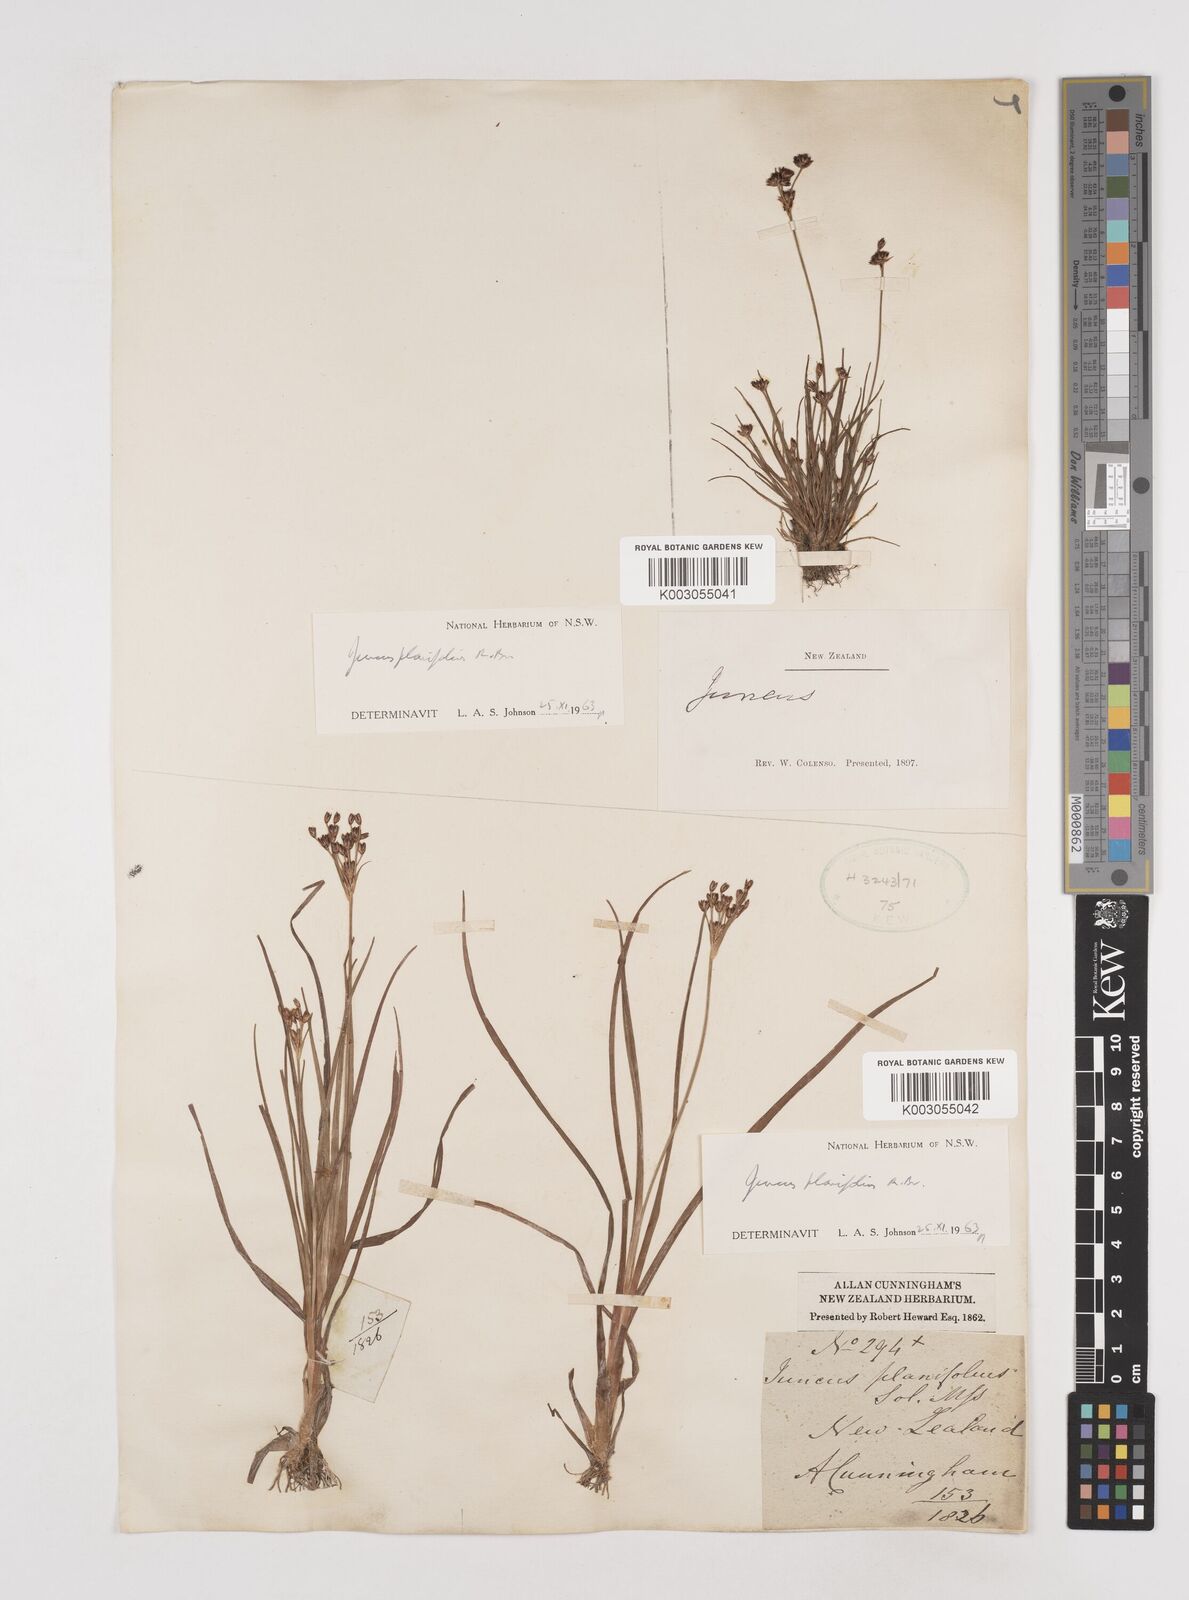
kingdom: Plantae
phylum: Tracheophyta
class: Liliopsida
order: Poales
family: Juncaceae
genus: Juncus
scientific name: Juncus planifolius
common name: Broadleaf rush
